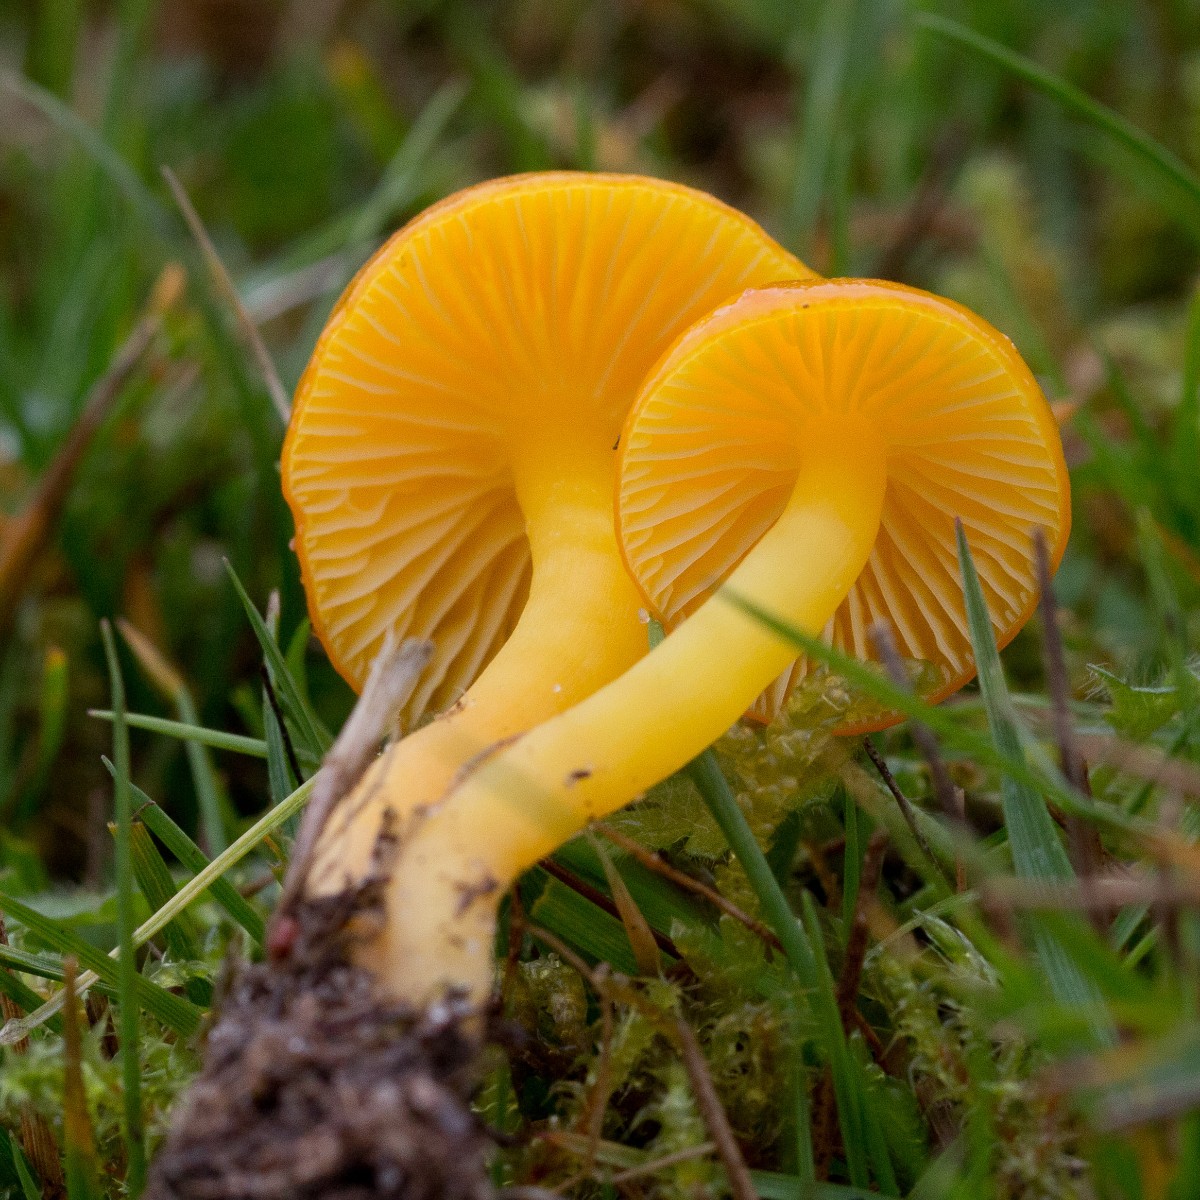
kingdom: Fungi
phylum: Basidiomycota
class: Agaricomycetes
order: Agaricales
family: Hygrophoraceae
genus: Hygrocybe
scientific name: Hygrocybe ceracea
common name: voksgul vokshat
